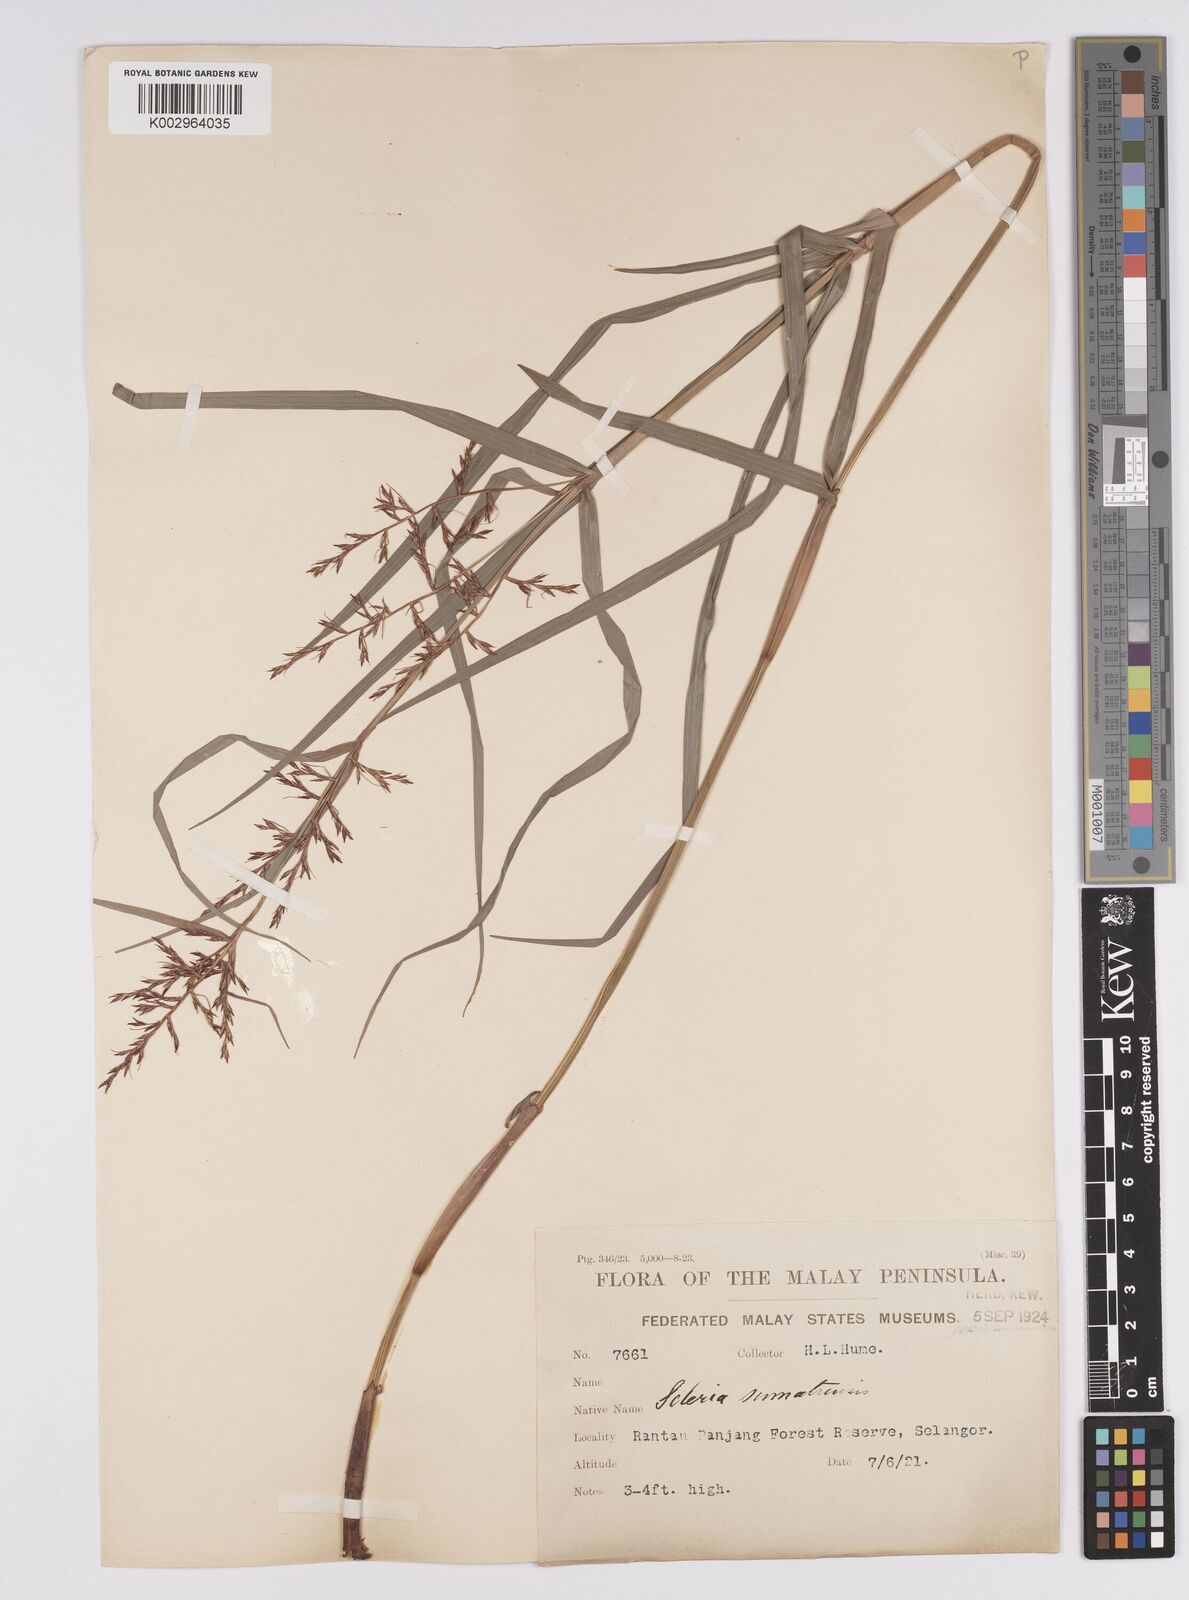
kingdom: Plantae
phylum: Tracheophyta
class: Liliopsida
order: Poales
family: Cyperaceae
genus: Scleria
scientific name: Scleria sumatrensis
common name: Sumatran scleria
